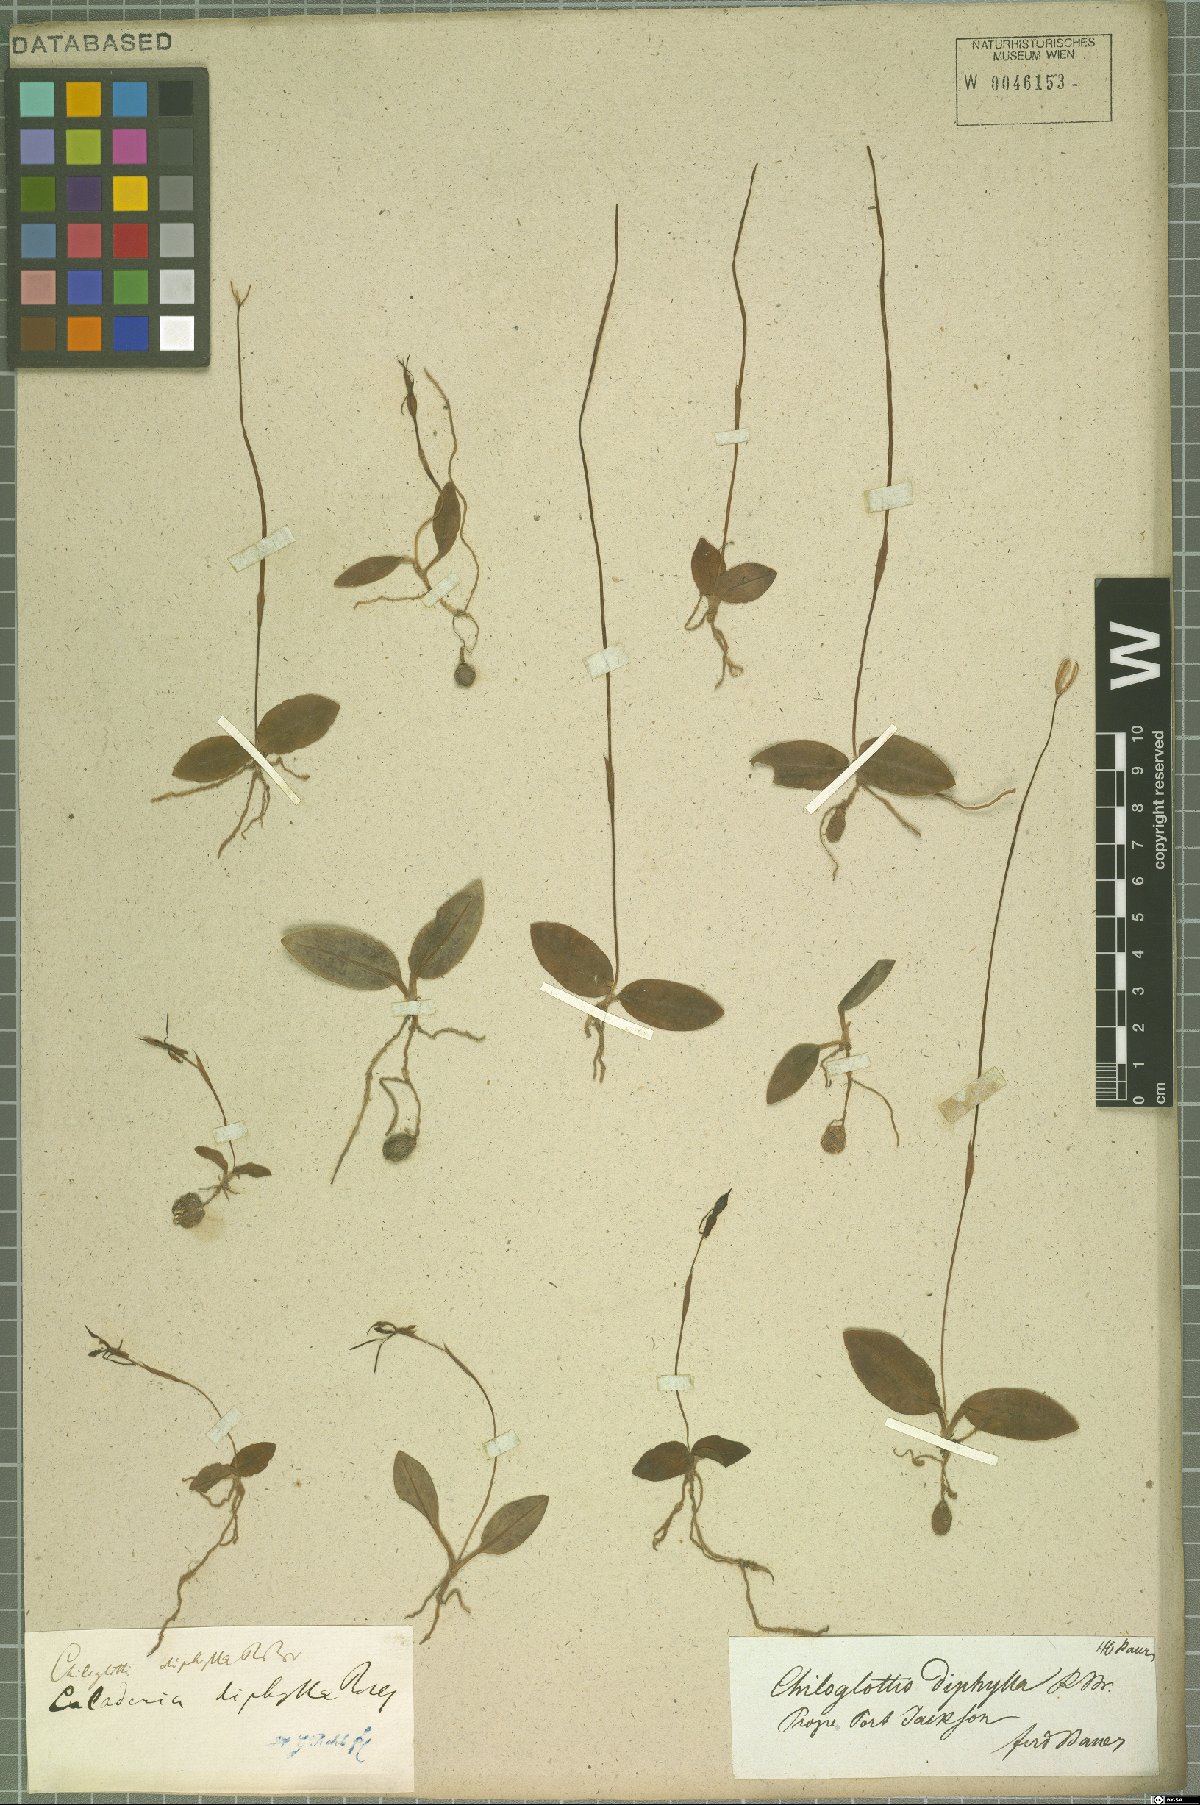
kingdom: Plantae
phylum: Tracheophyta
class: Liliopsida
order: Asparagales
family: Orchidaceae
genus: Chiloglottis
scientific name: Chiloglottis diphylla
